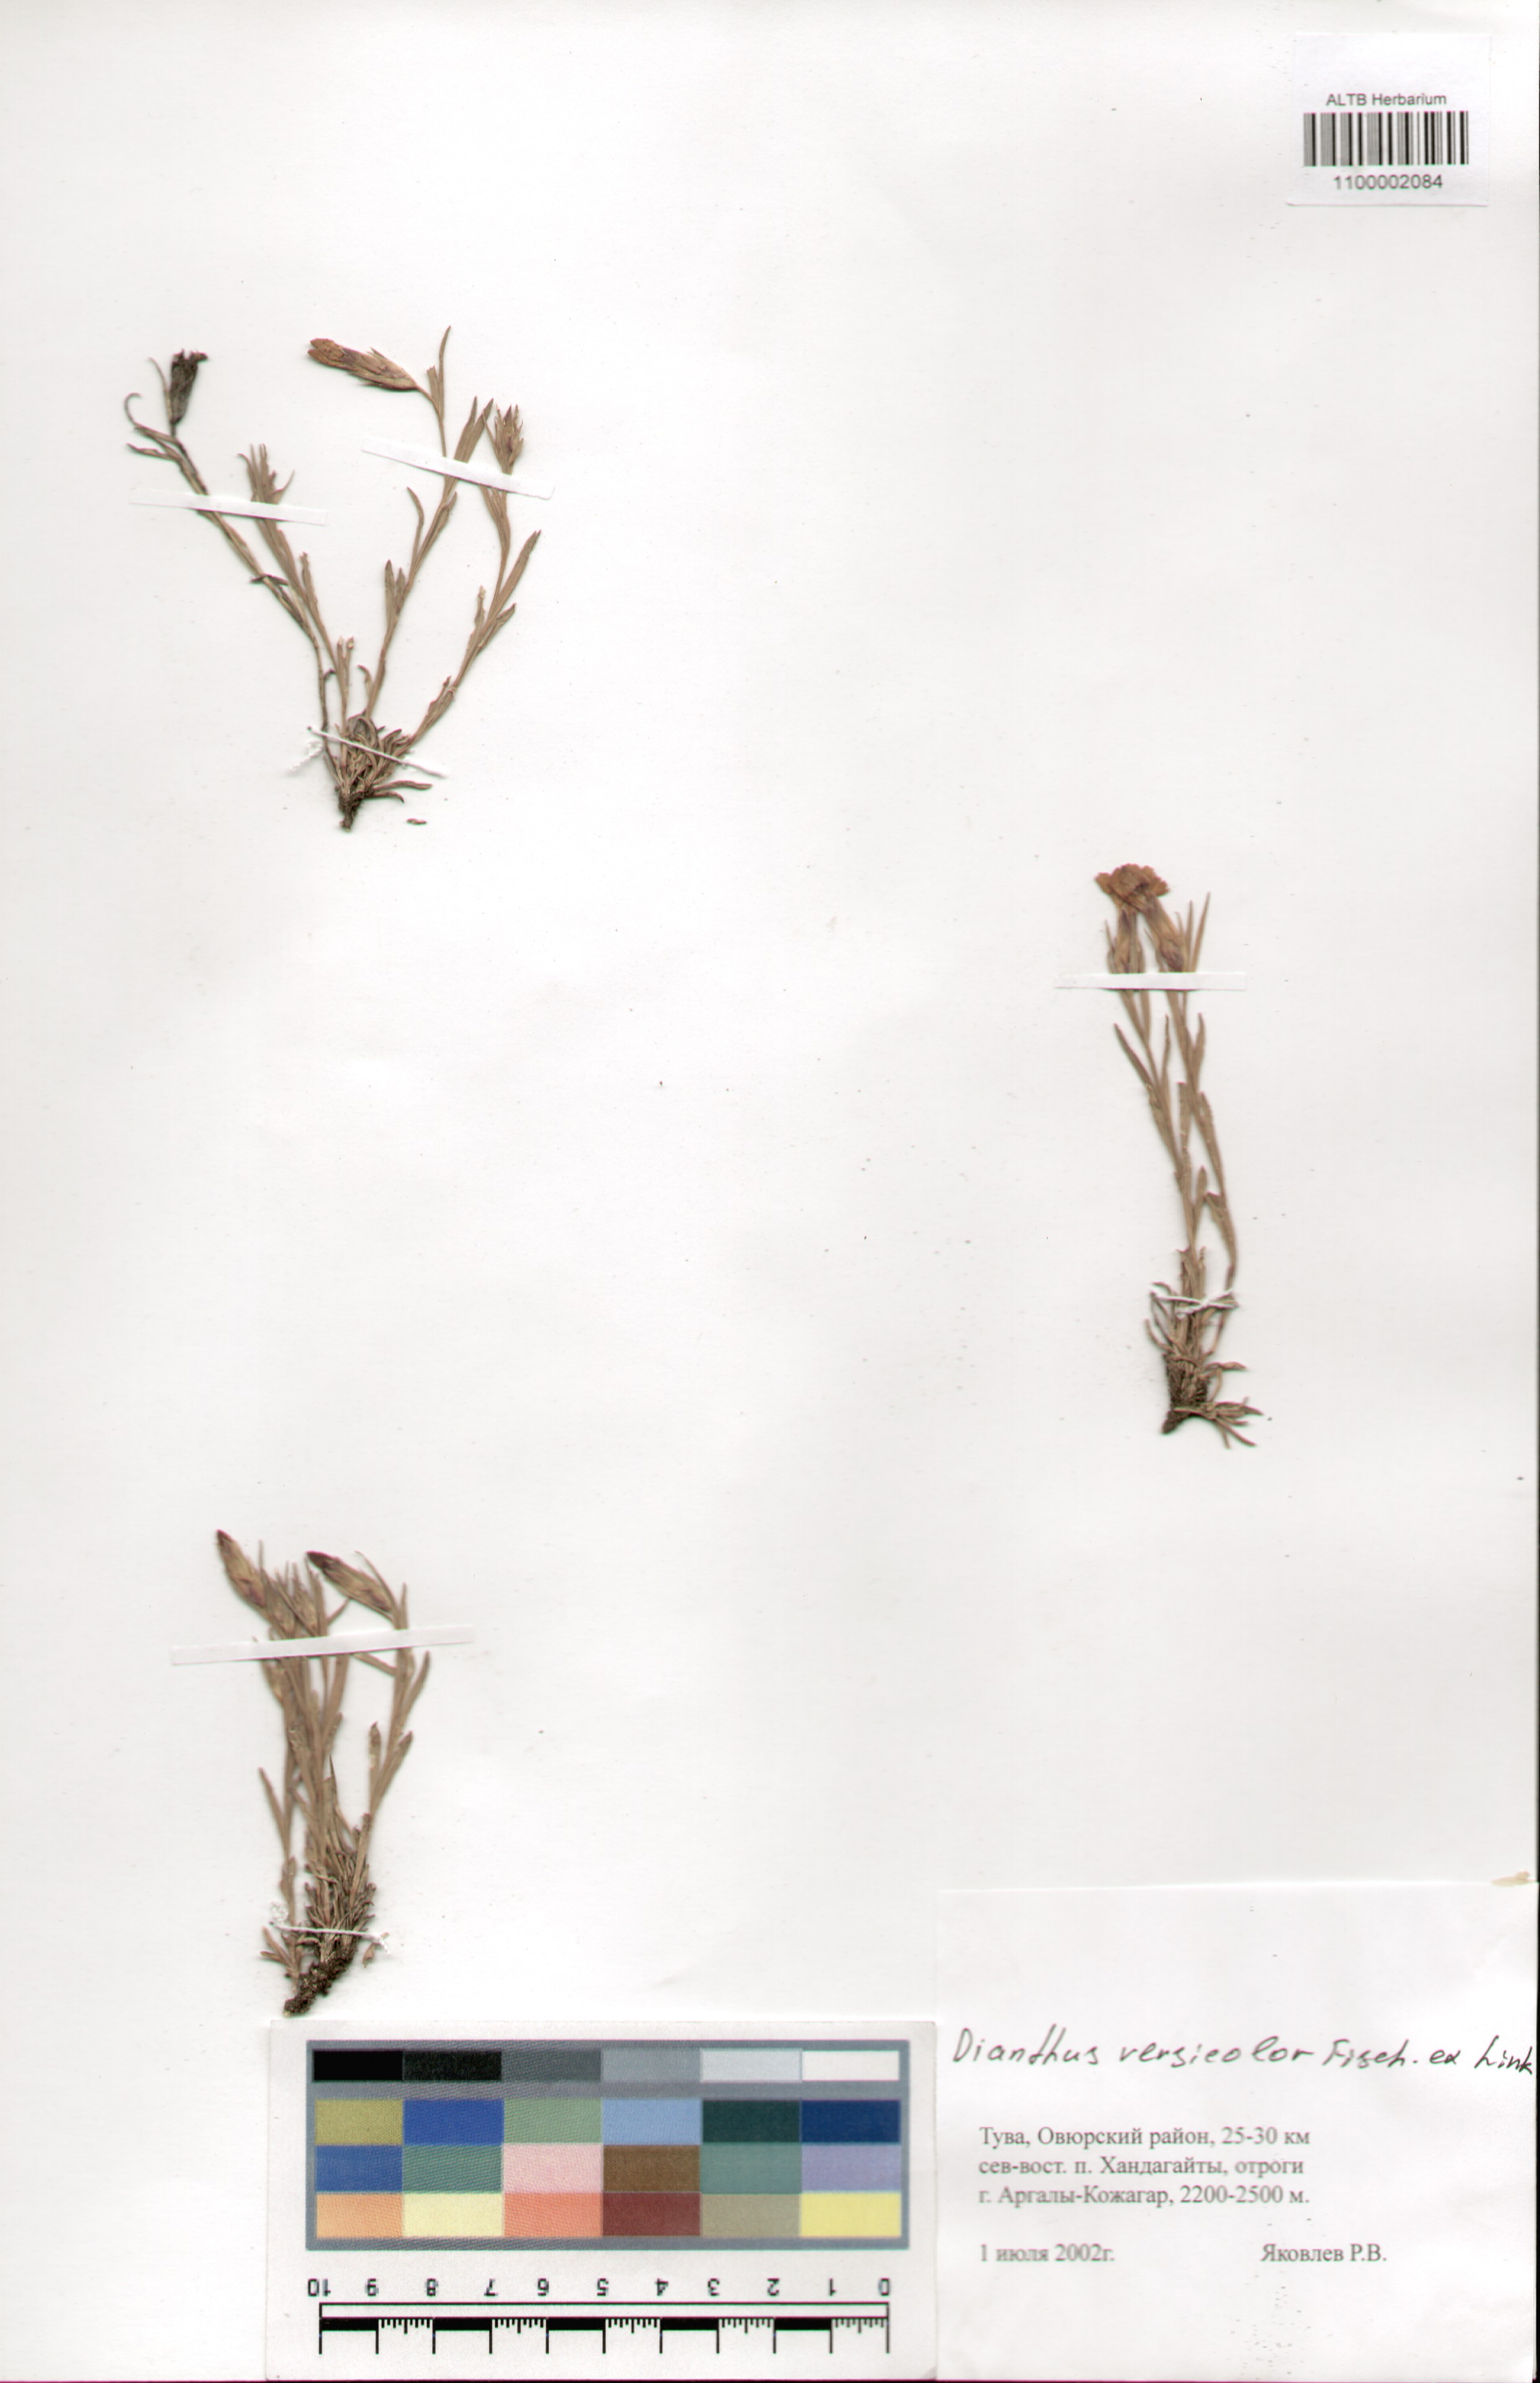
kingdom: Plantae
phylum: Tracheophyta
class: Magnoliopsida
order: Caryophyllales
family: Caryophyllaceae
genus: Dianthus
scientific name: Dianthus chinensis
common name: Rainbow pink
